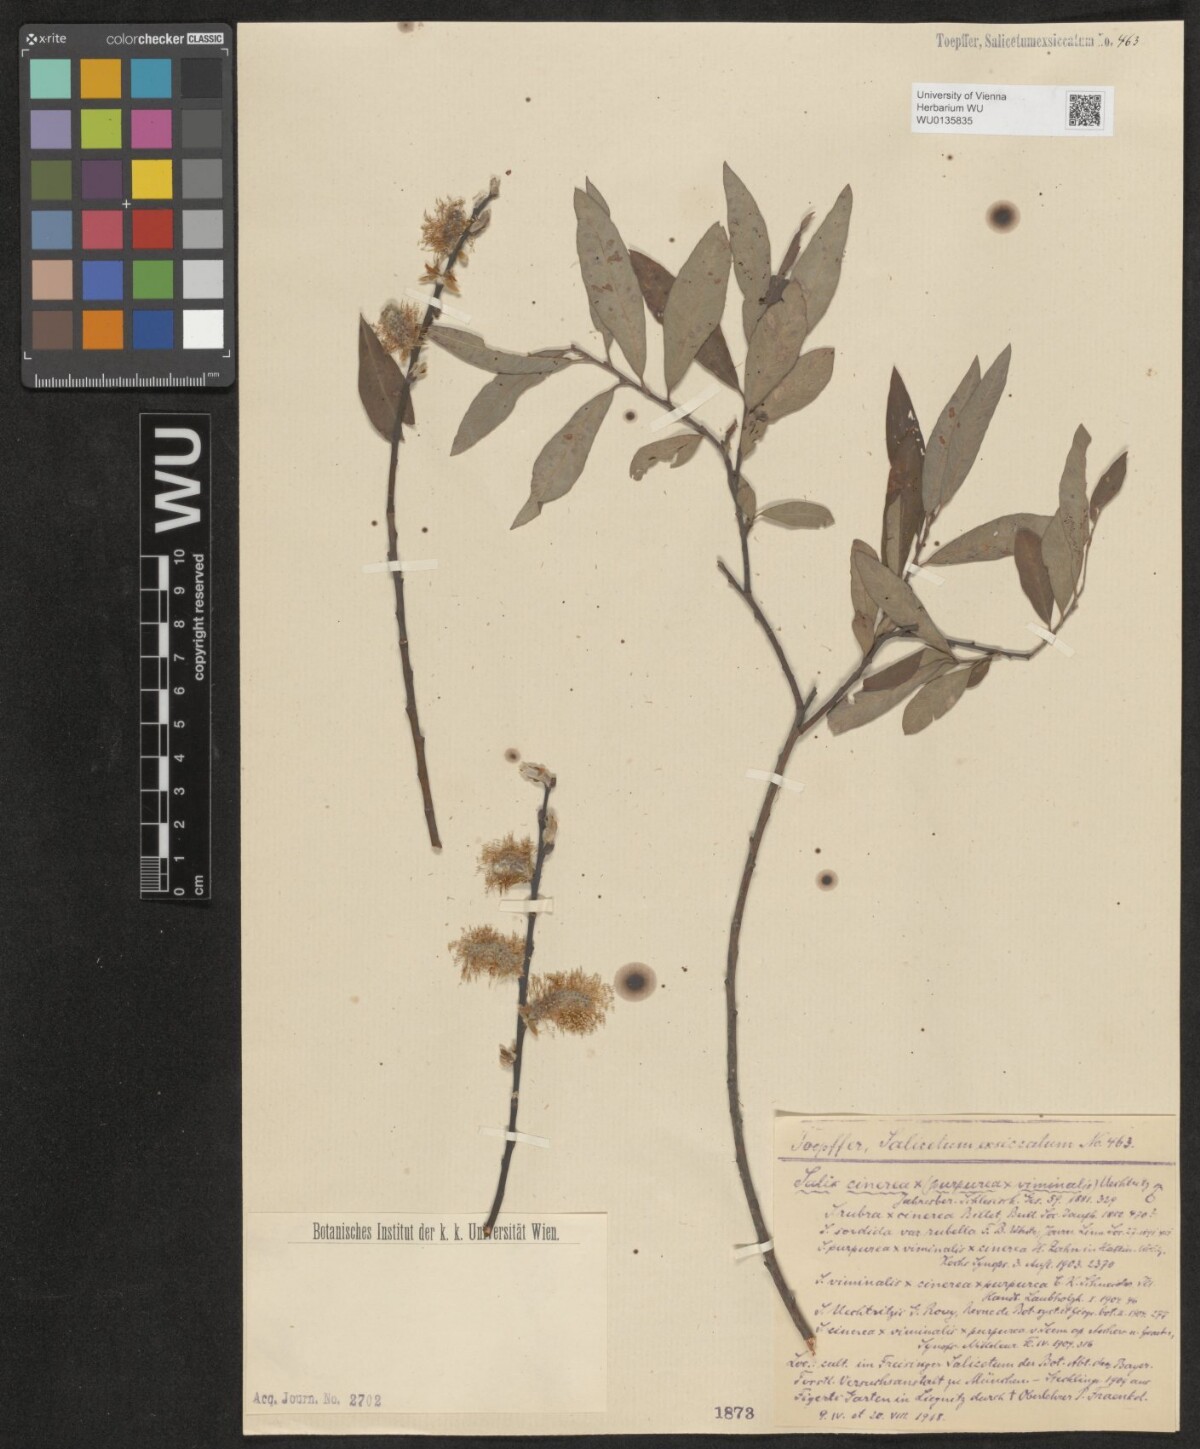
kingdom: Plantae
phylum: Tracheophyta
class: Magnoliopsida
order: Malpighiales
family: Salicaceae
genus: Salix
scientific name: Salix
